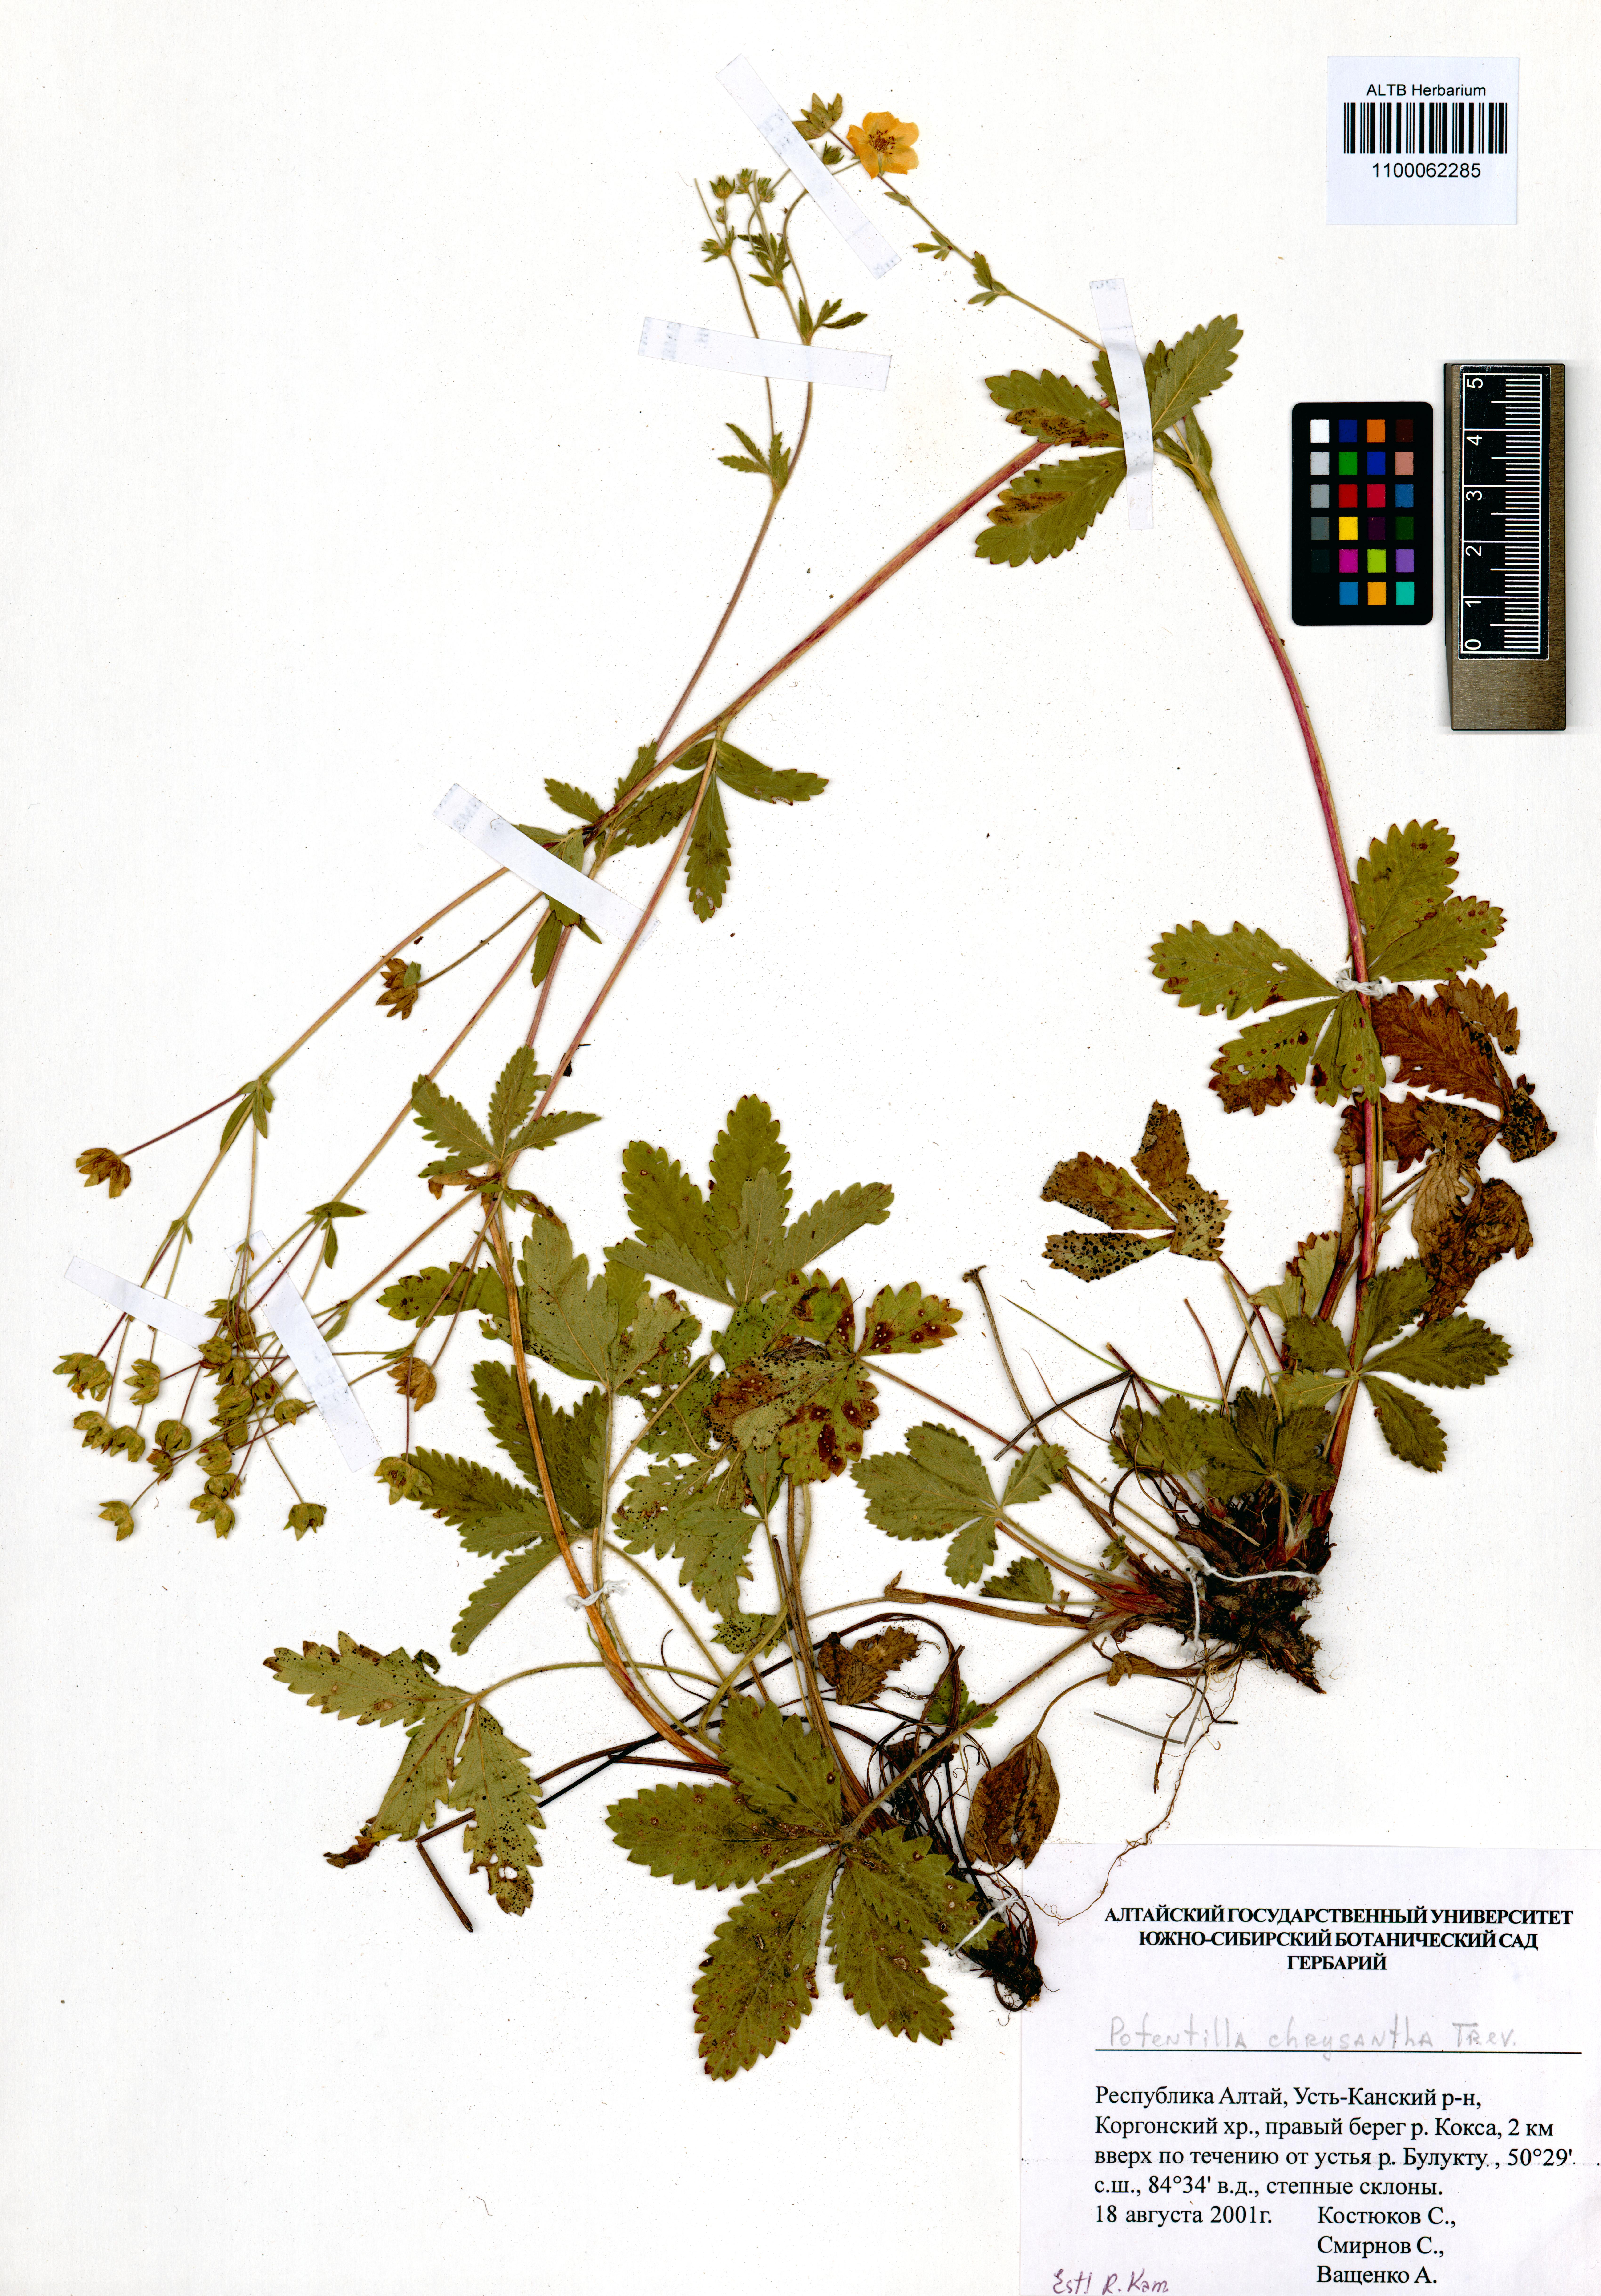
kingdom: Plantae
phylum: Tracheophyta
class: Magnoliopsida
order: Rosales
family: Rosaceae
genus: Potentilla
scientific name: Potentilla chrysantha
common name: Thuringian cinquefoil
